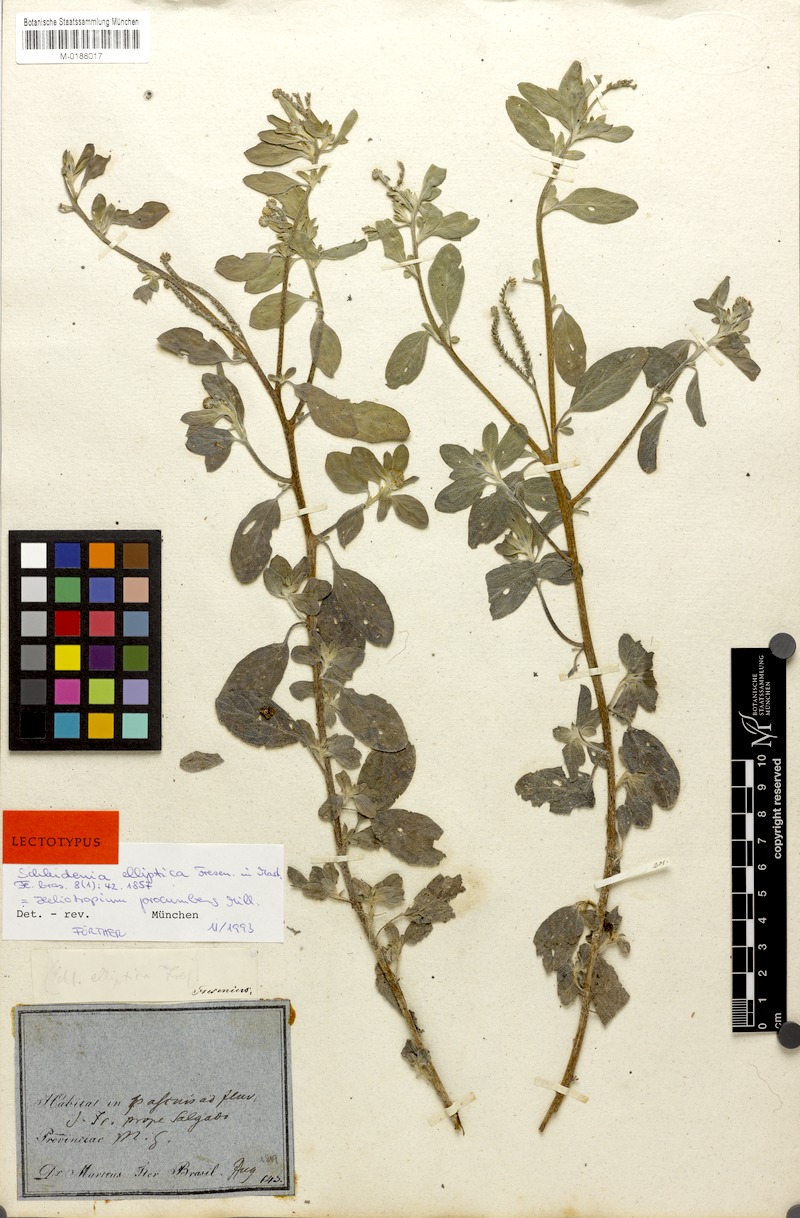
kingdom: Plantae
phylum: Tracheophyta
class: Magnoliopsida
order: Boraginales
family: Heliotropiaceae
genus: Euploca
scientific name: Euploca procumbens
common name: Fourspike heliotrope
